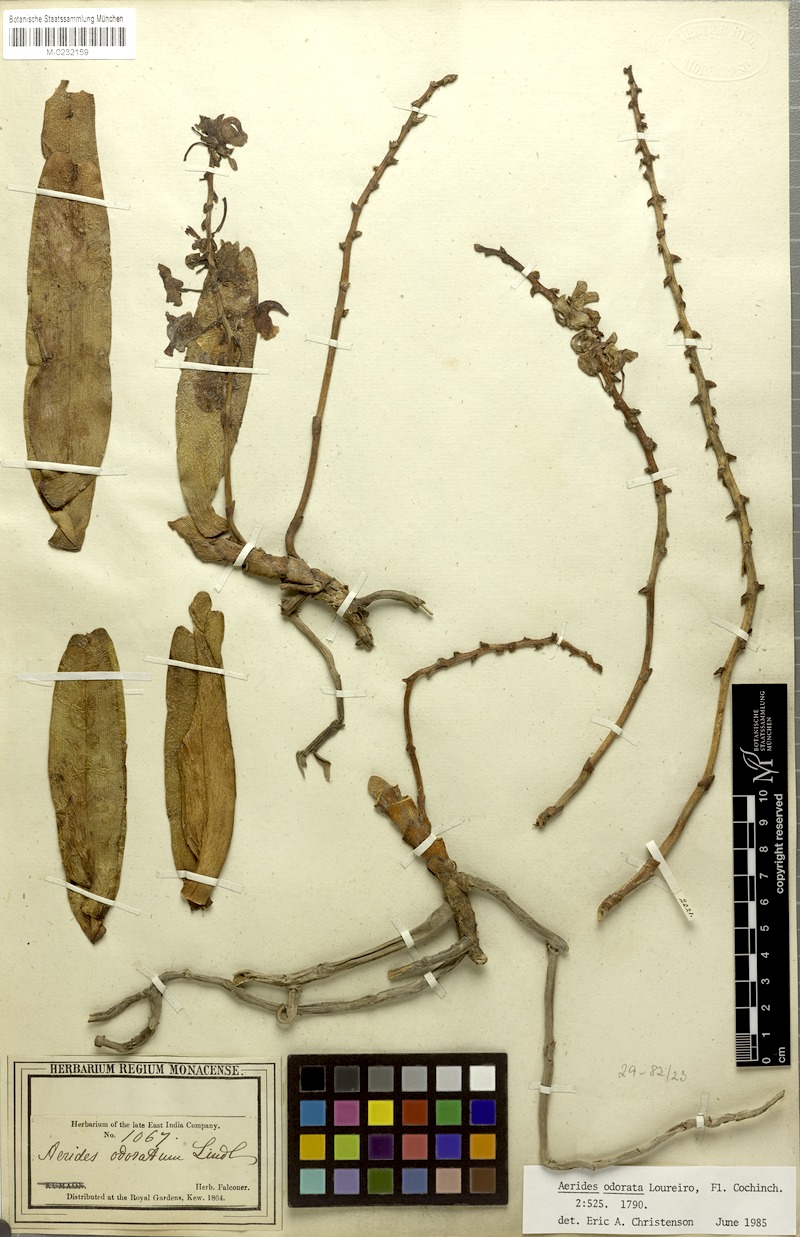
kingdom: Plantae
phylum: Tracheophyta
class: Liliopsida
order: Asparagales
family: Orchidaceae
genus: Aerides
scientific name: Aerides odorata
